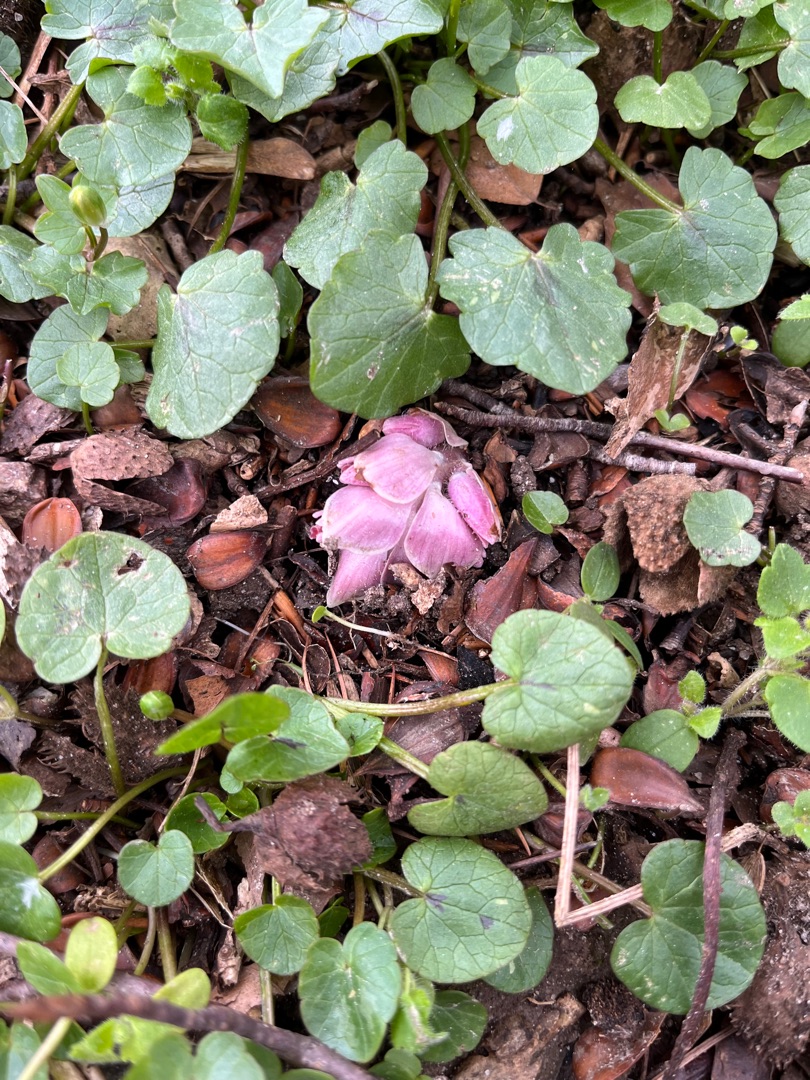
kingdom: Plantae
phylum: Tracheophyta
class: Magnoliopsida
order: Lamiales
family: Orobanchaceae
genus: Lathraea
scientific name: Lathraea squamaria
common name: Skælrod
